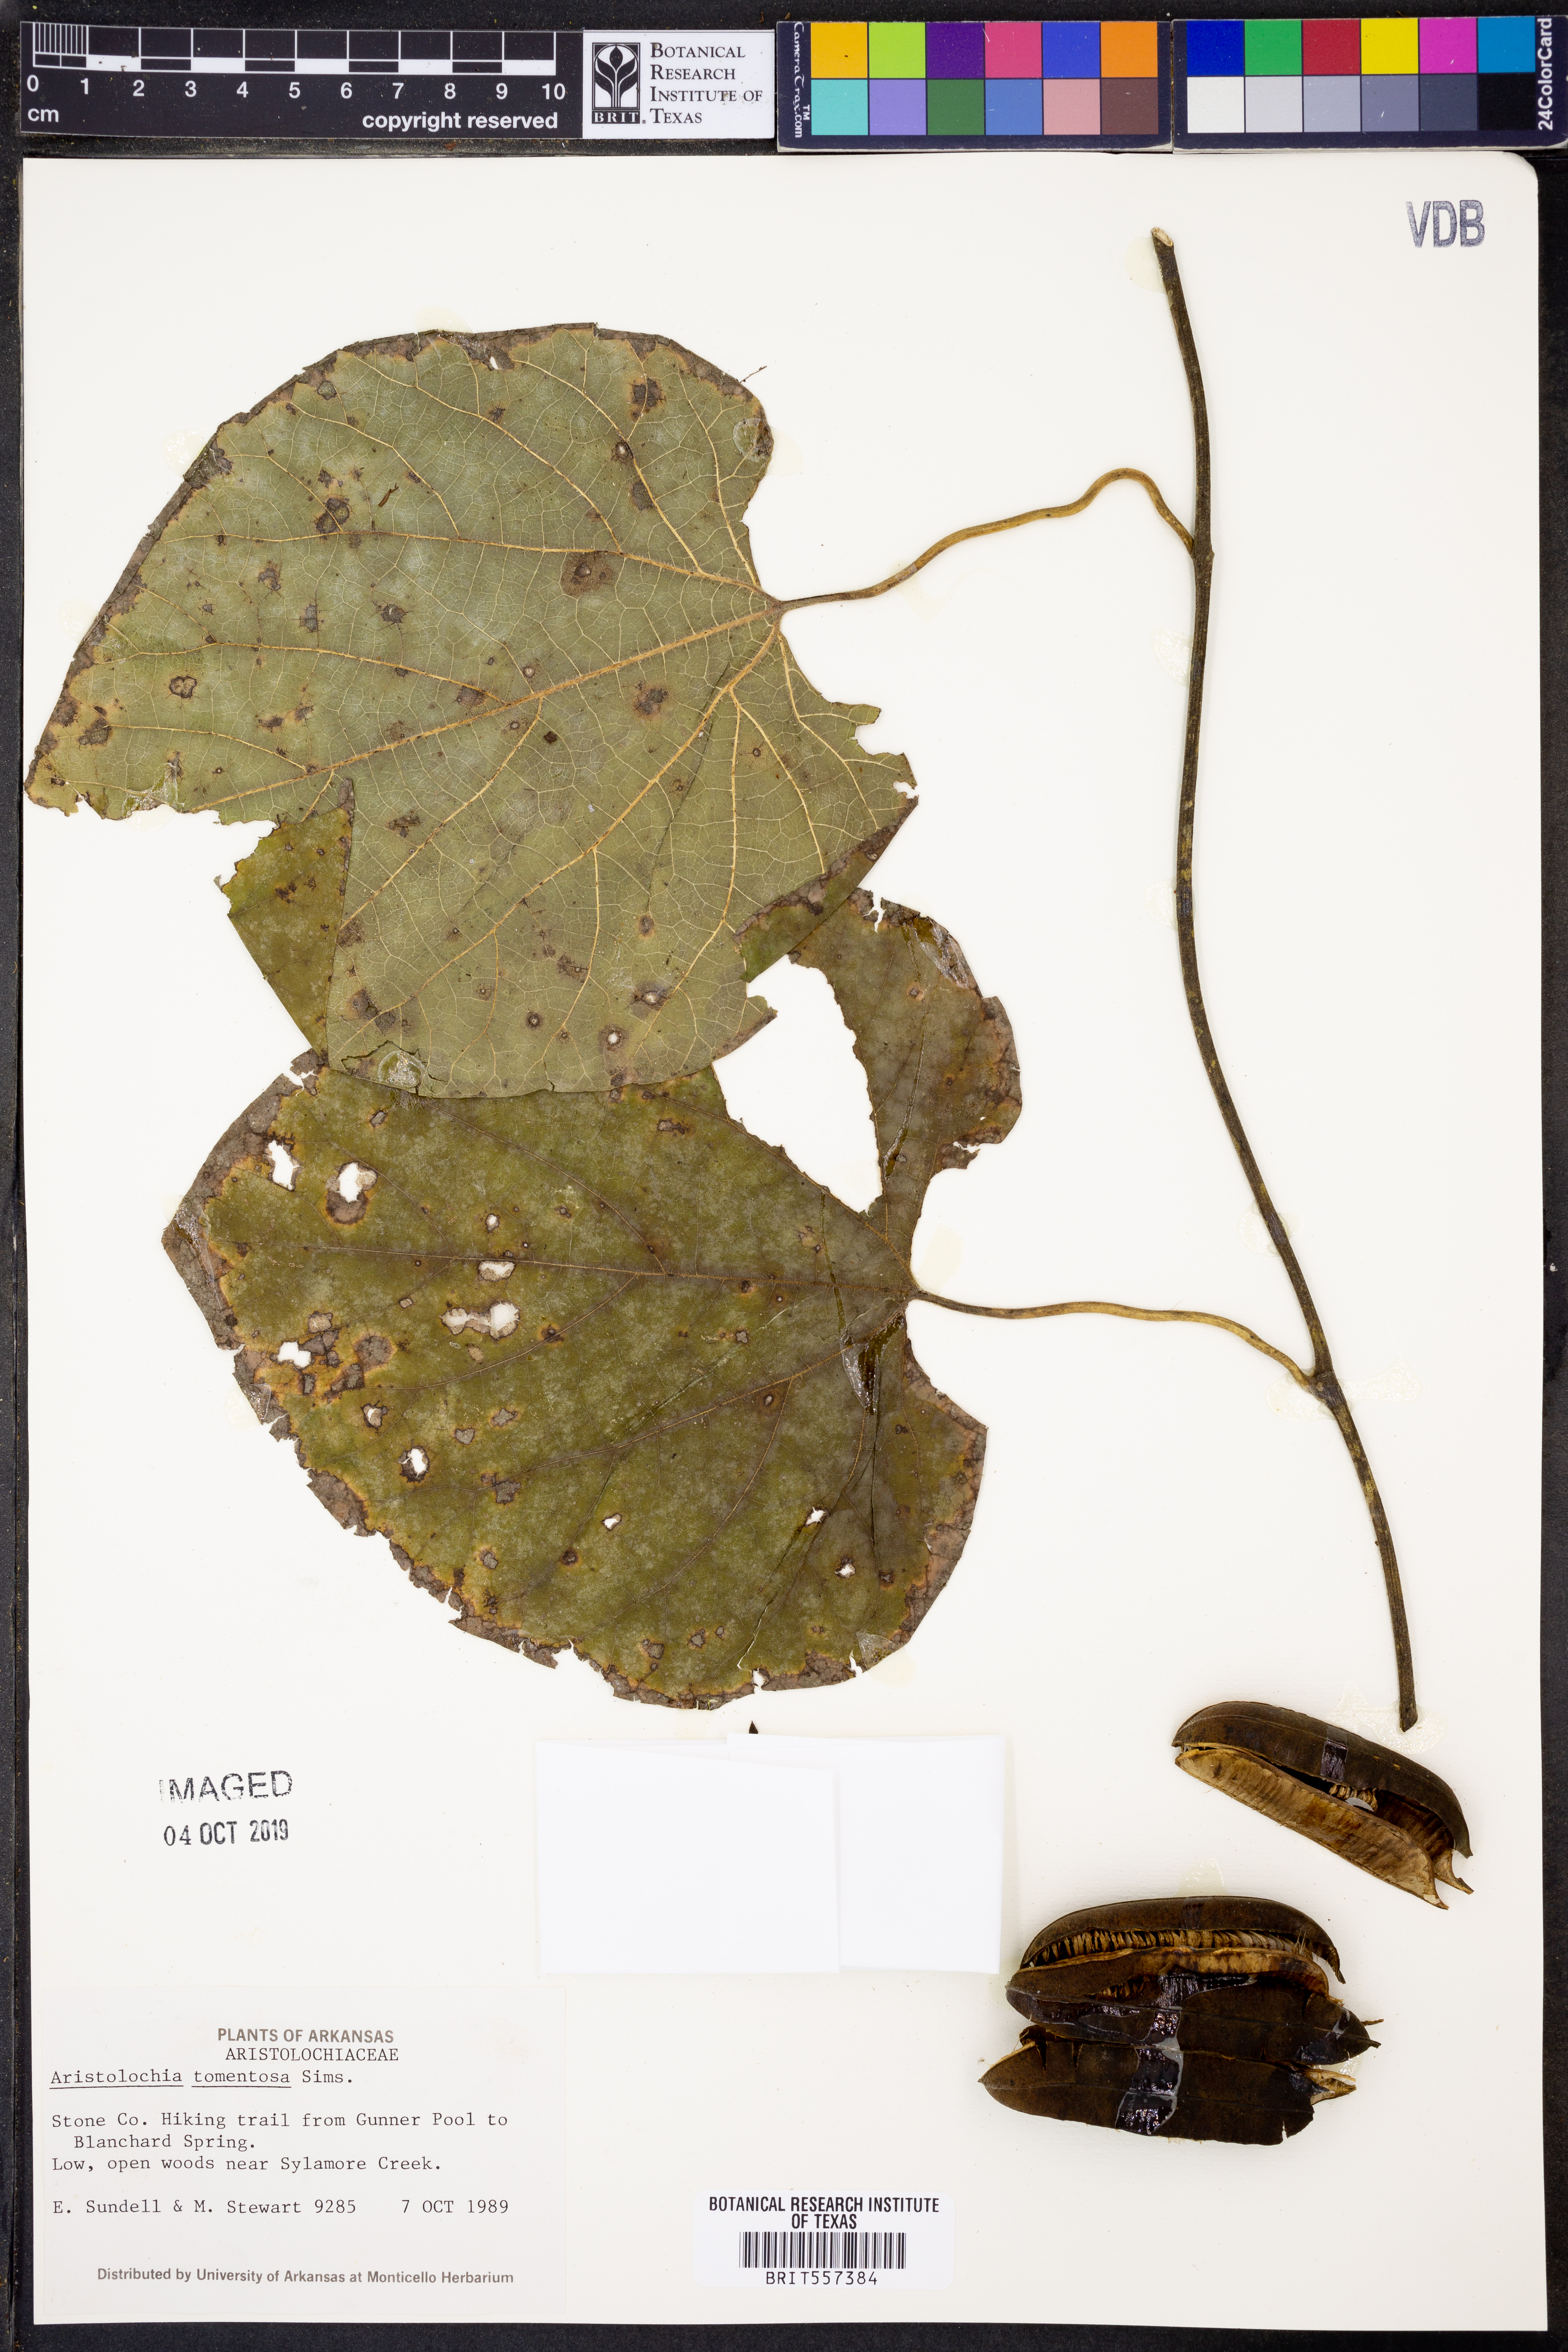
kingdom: Plantae
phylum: Tracheophyta
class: Magnoliopsida
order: Piperales
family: Aristolochiaceae
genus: Isotrema
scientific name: Isotrema tomentosum
